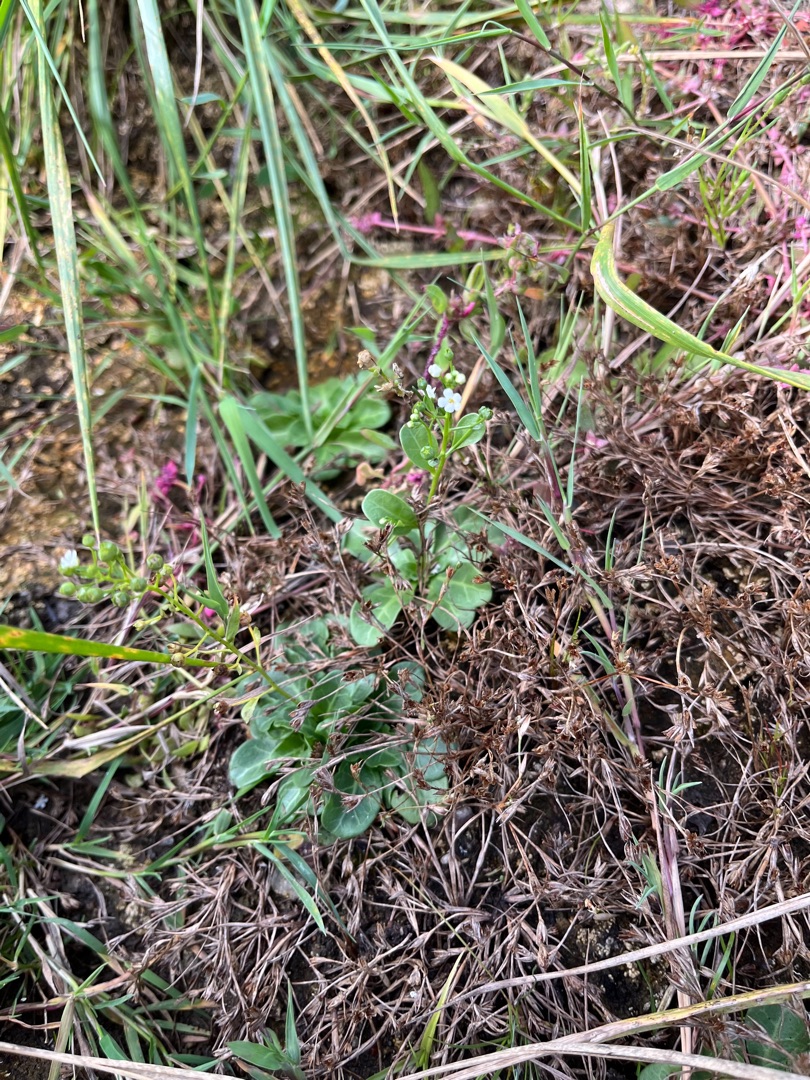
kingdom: Plantae
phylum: Tracheophyta
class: Magnoliopsida
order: Ericales
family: Primulaceae
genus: Samolus
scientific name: Samolus valerandi
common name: Samel
